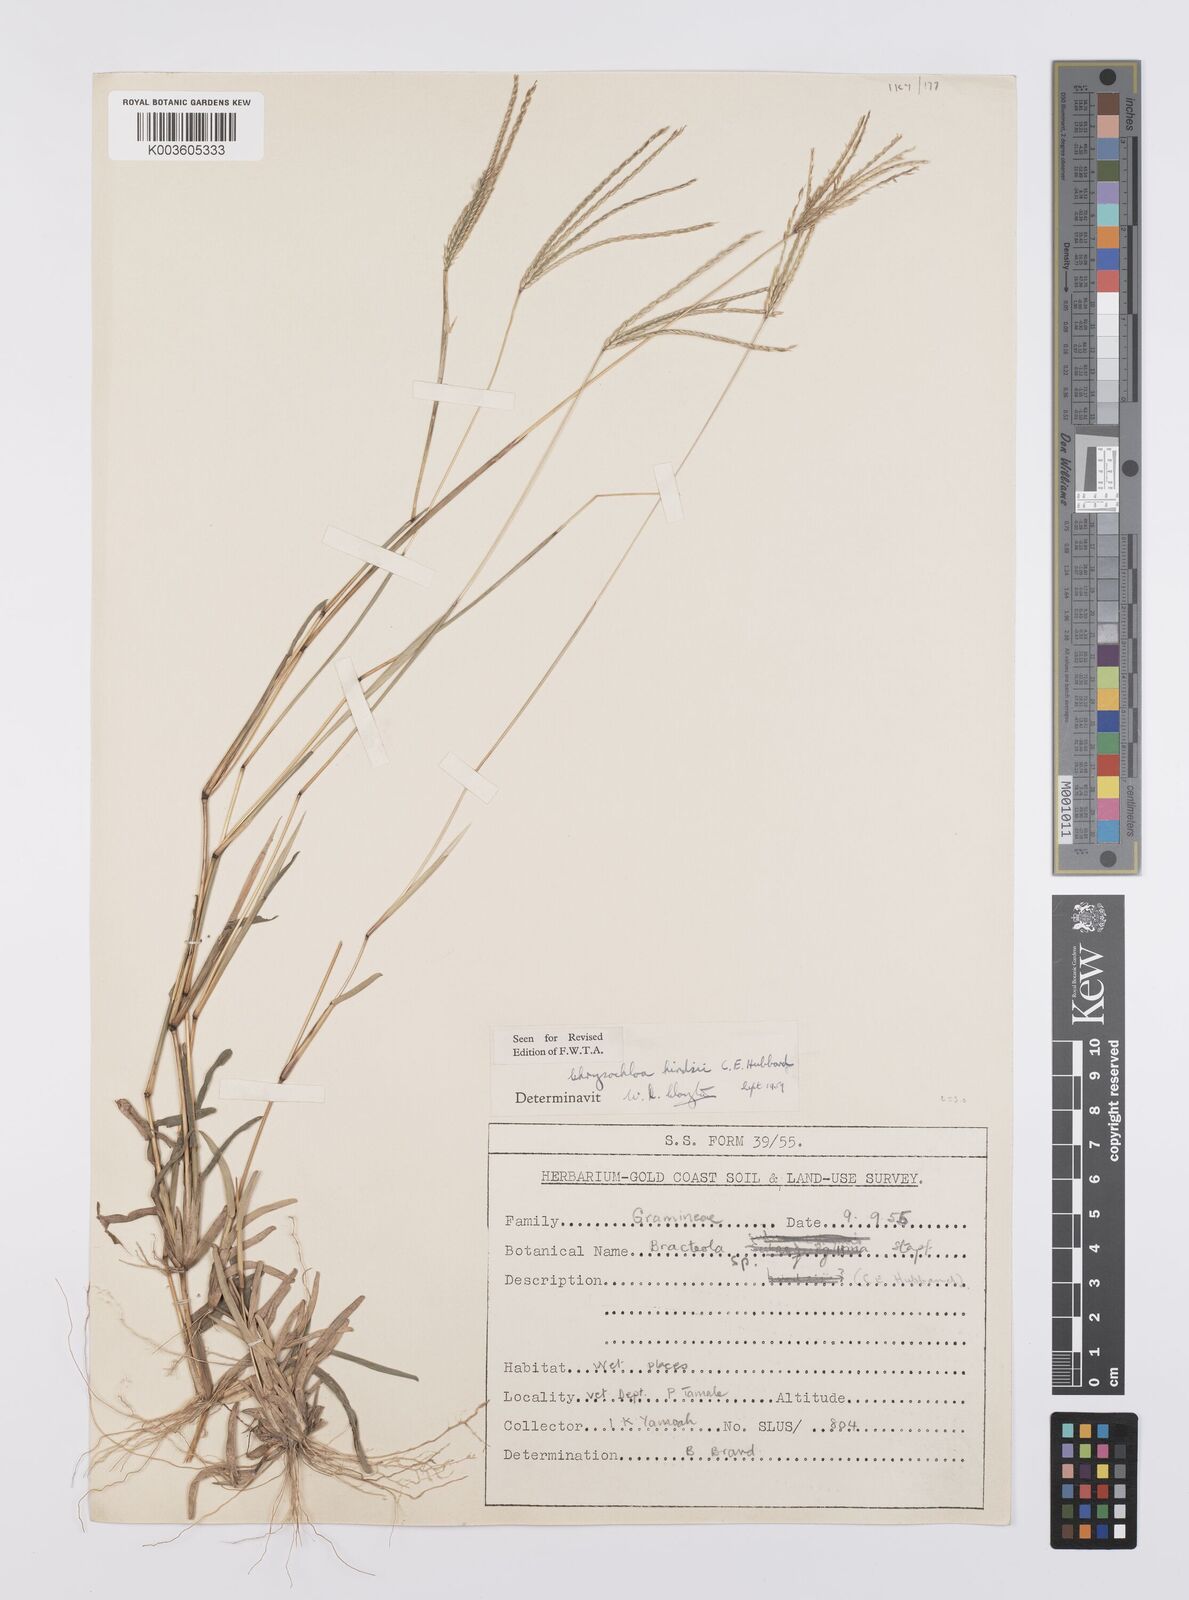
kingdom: Plantae
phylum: Tracheophyta
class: Liliopsida
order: Poales
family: Poaceae
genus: Chrysochloa
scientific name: Chrysochloa hindsii
